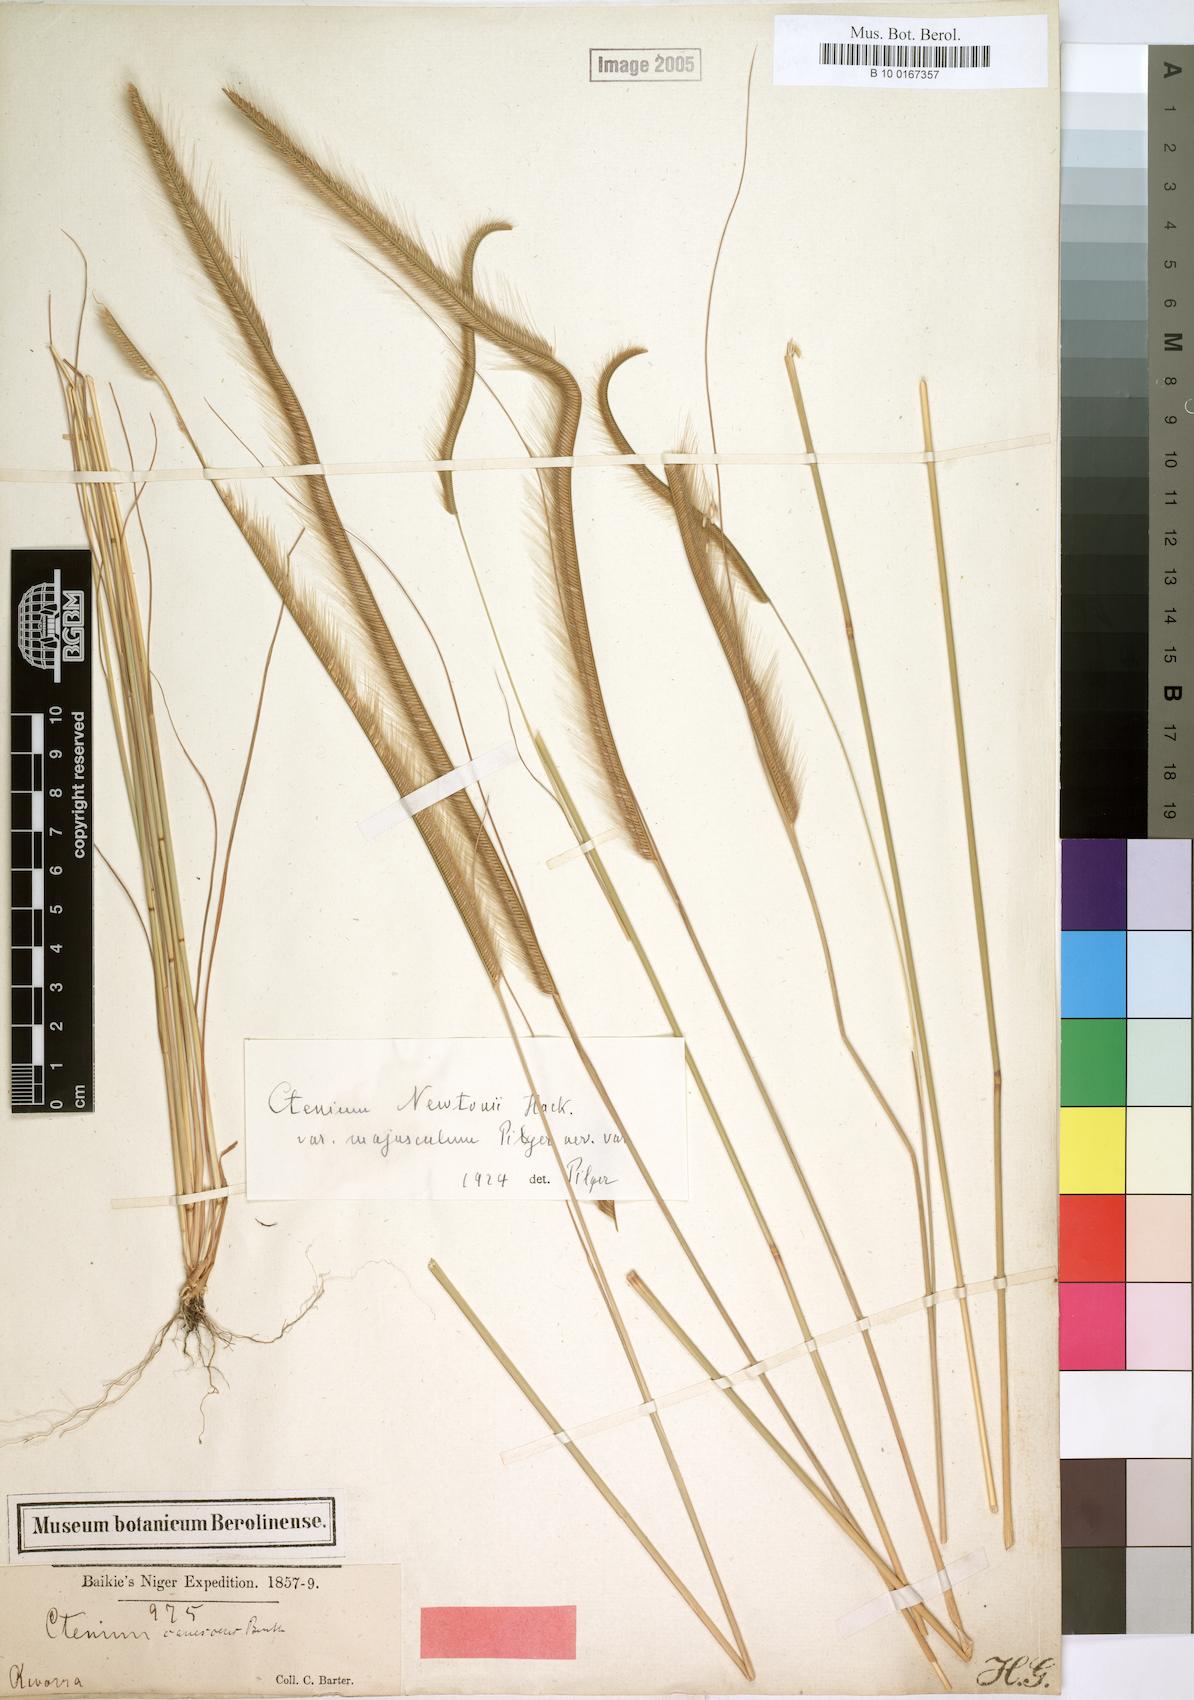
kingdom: Plantae
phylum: Tracheophyta
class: Liliopsida
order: Poales
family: Poaceae
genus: Ctenium
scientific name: Ctenium newtonii
